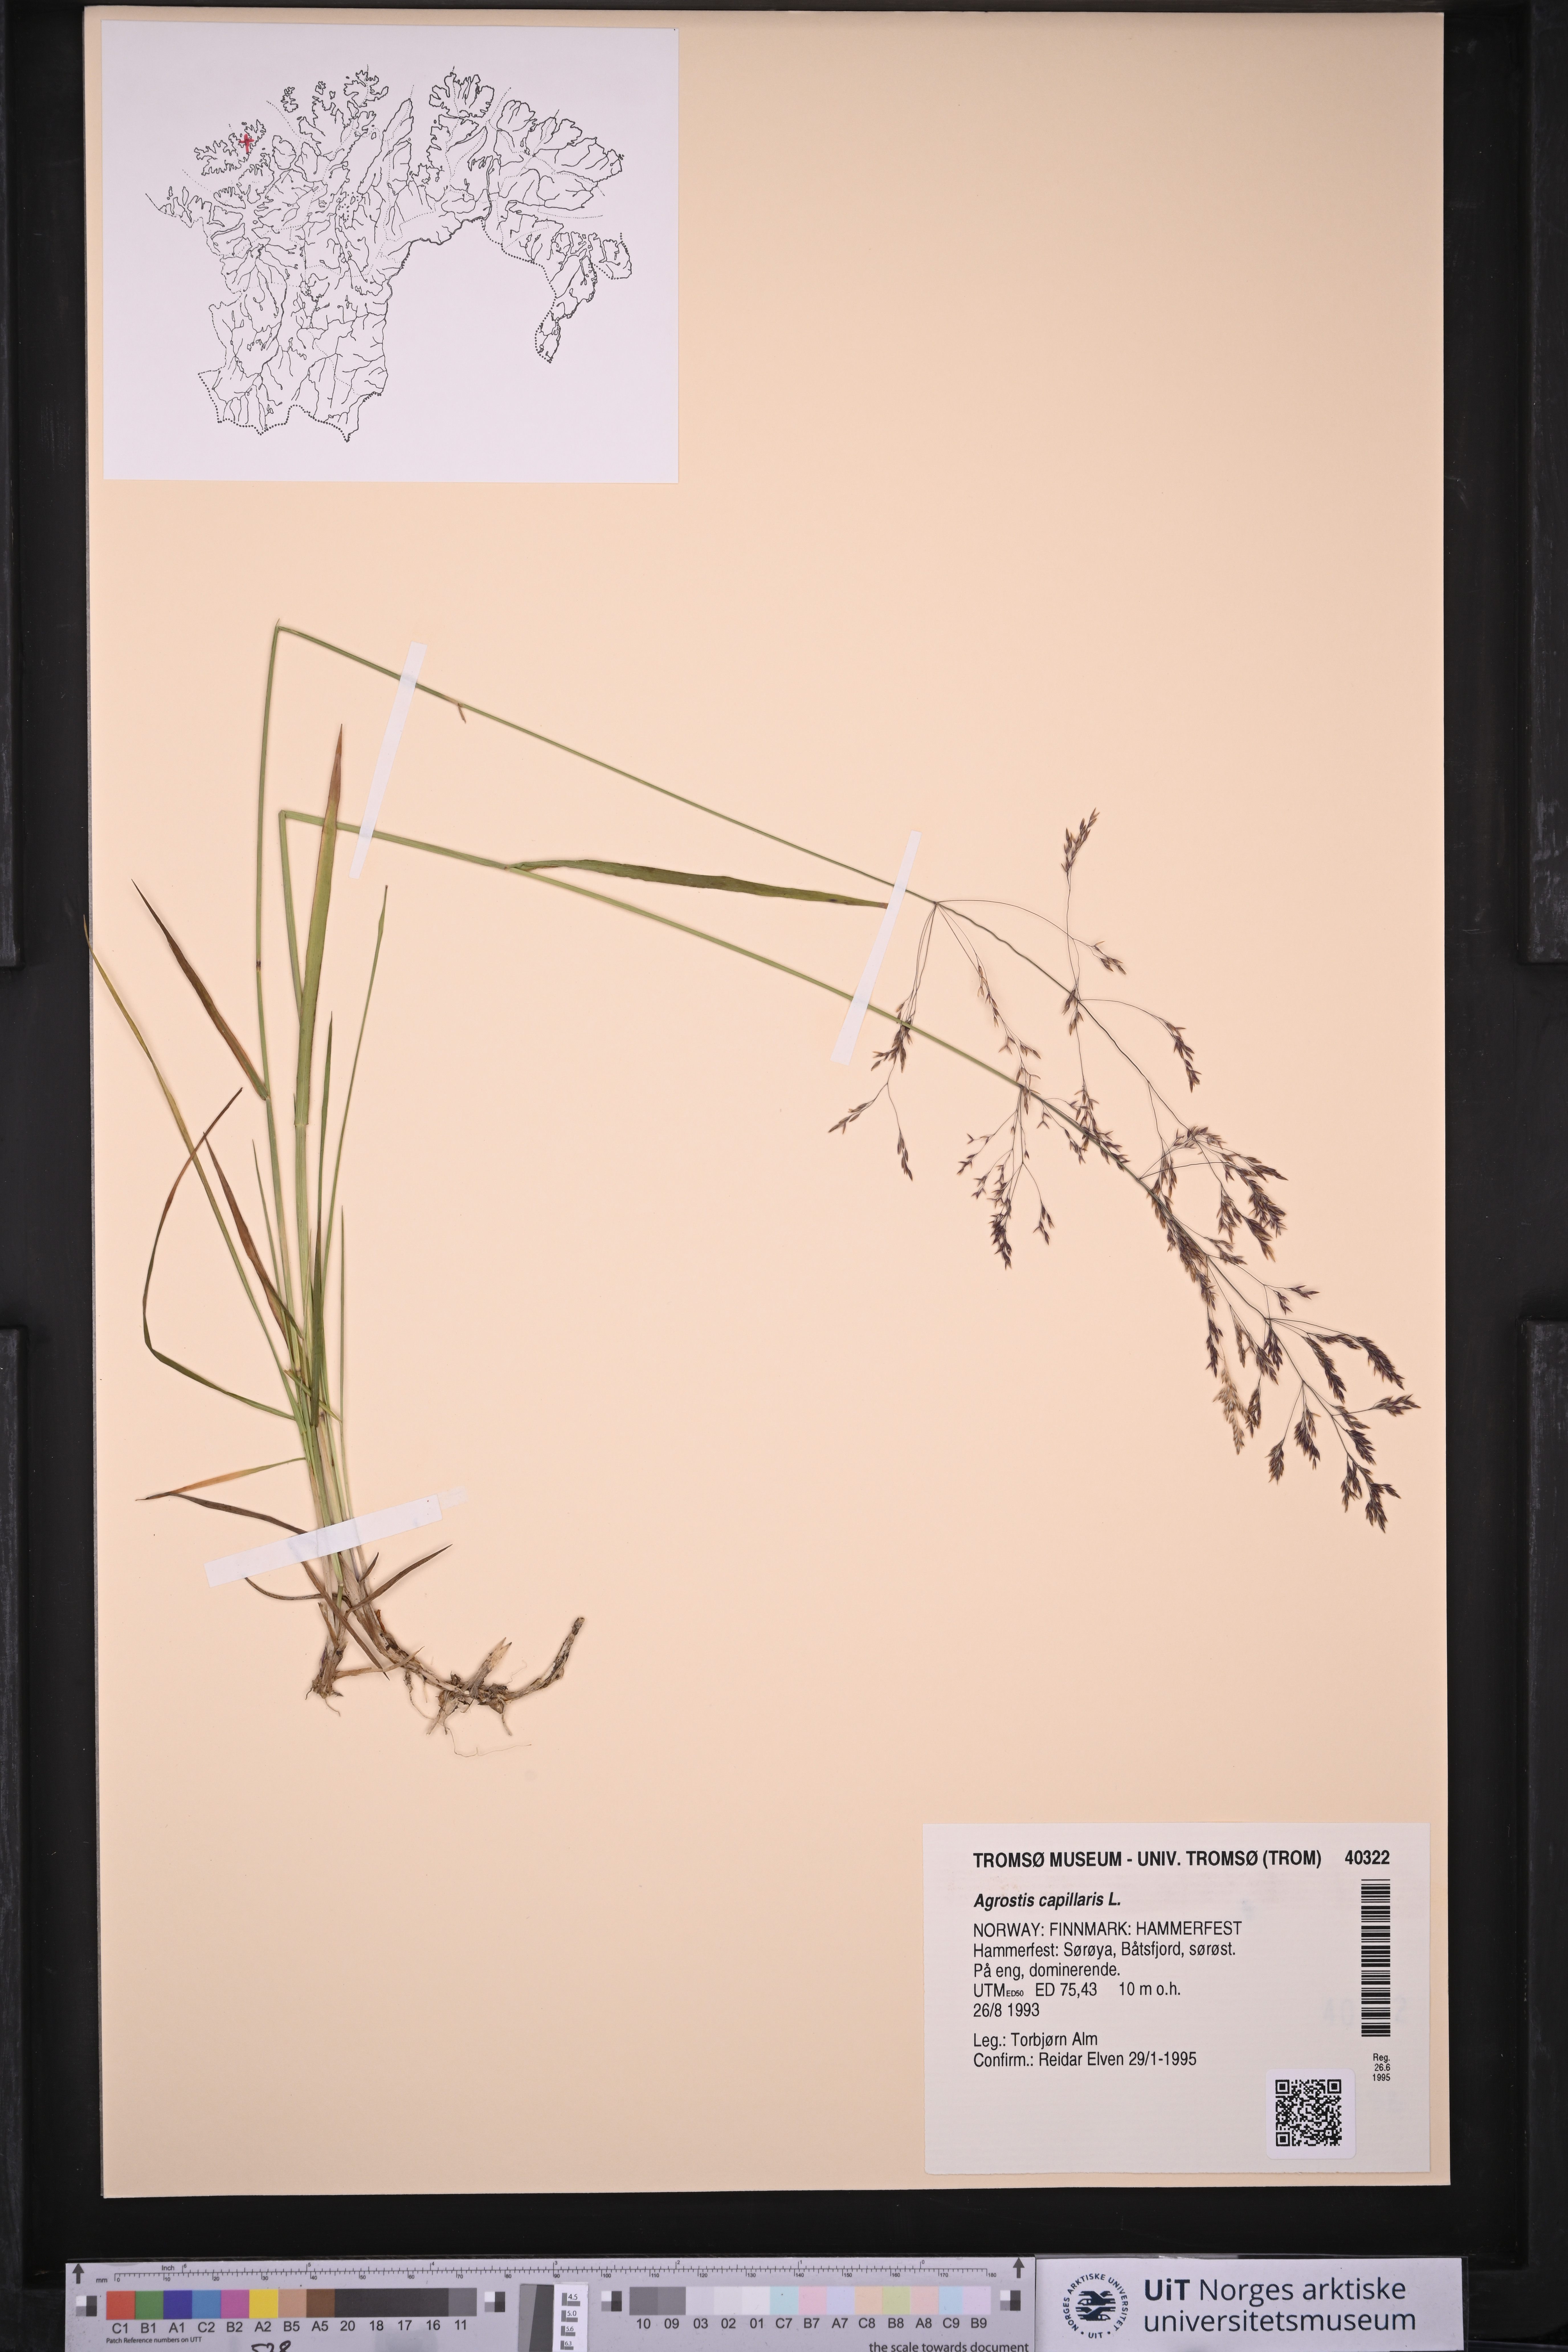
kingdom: Plantae
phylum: Tracheophyta
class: Liliopsida
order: Poales
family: Poaceae
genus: Agrostis
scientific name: Agrostis capillaris
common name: Colonial bentgrass
